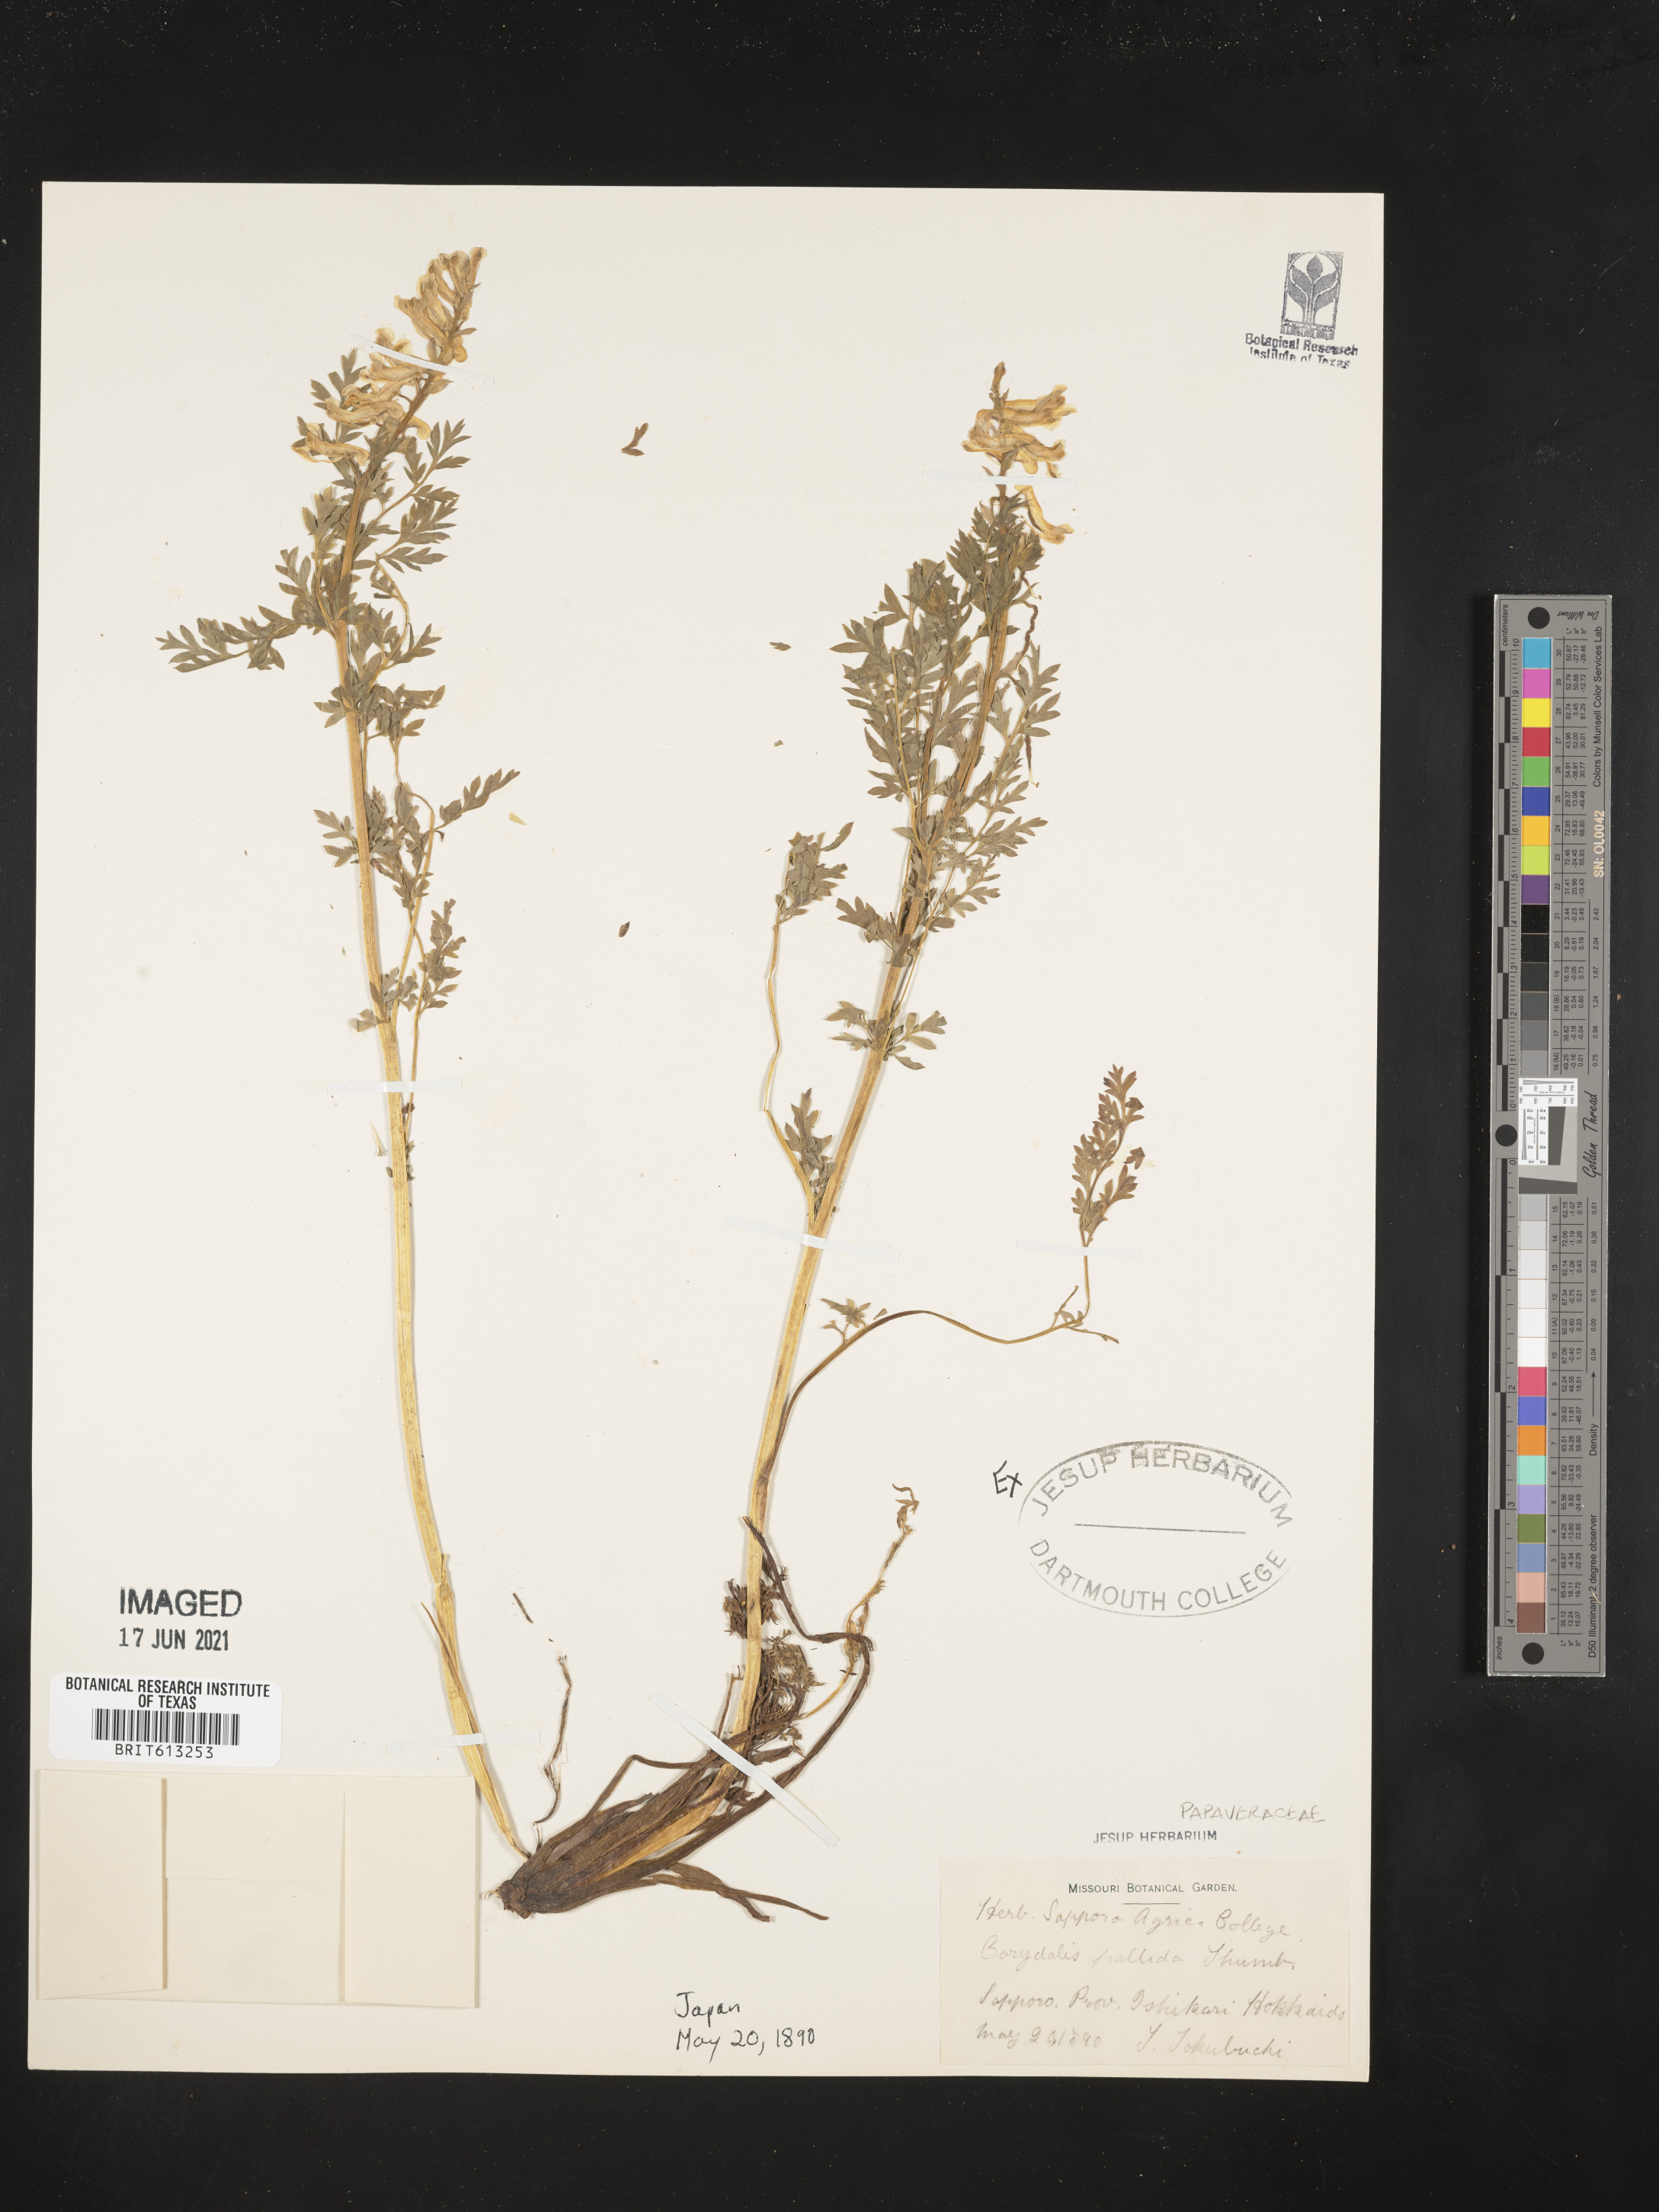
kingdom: Plantae
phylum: Tracheophyta
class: Magnoliopsida
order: Ranunculales
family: Papaveraceae
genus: Corydalis
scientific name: Corydalis
